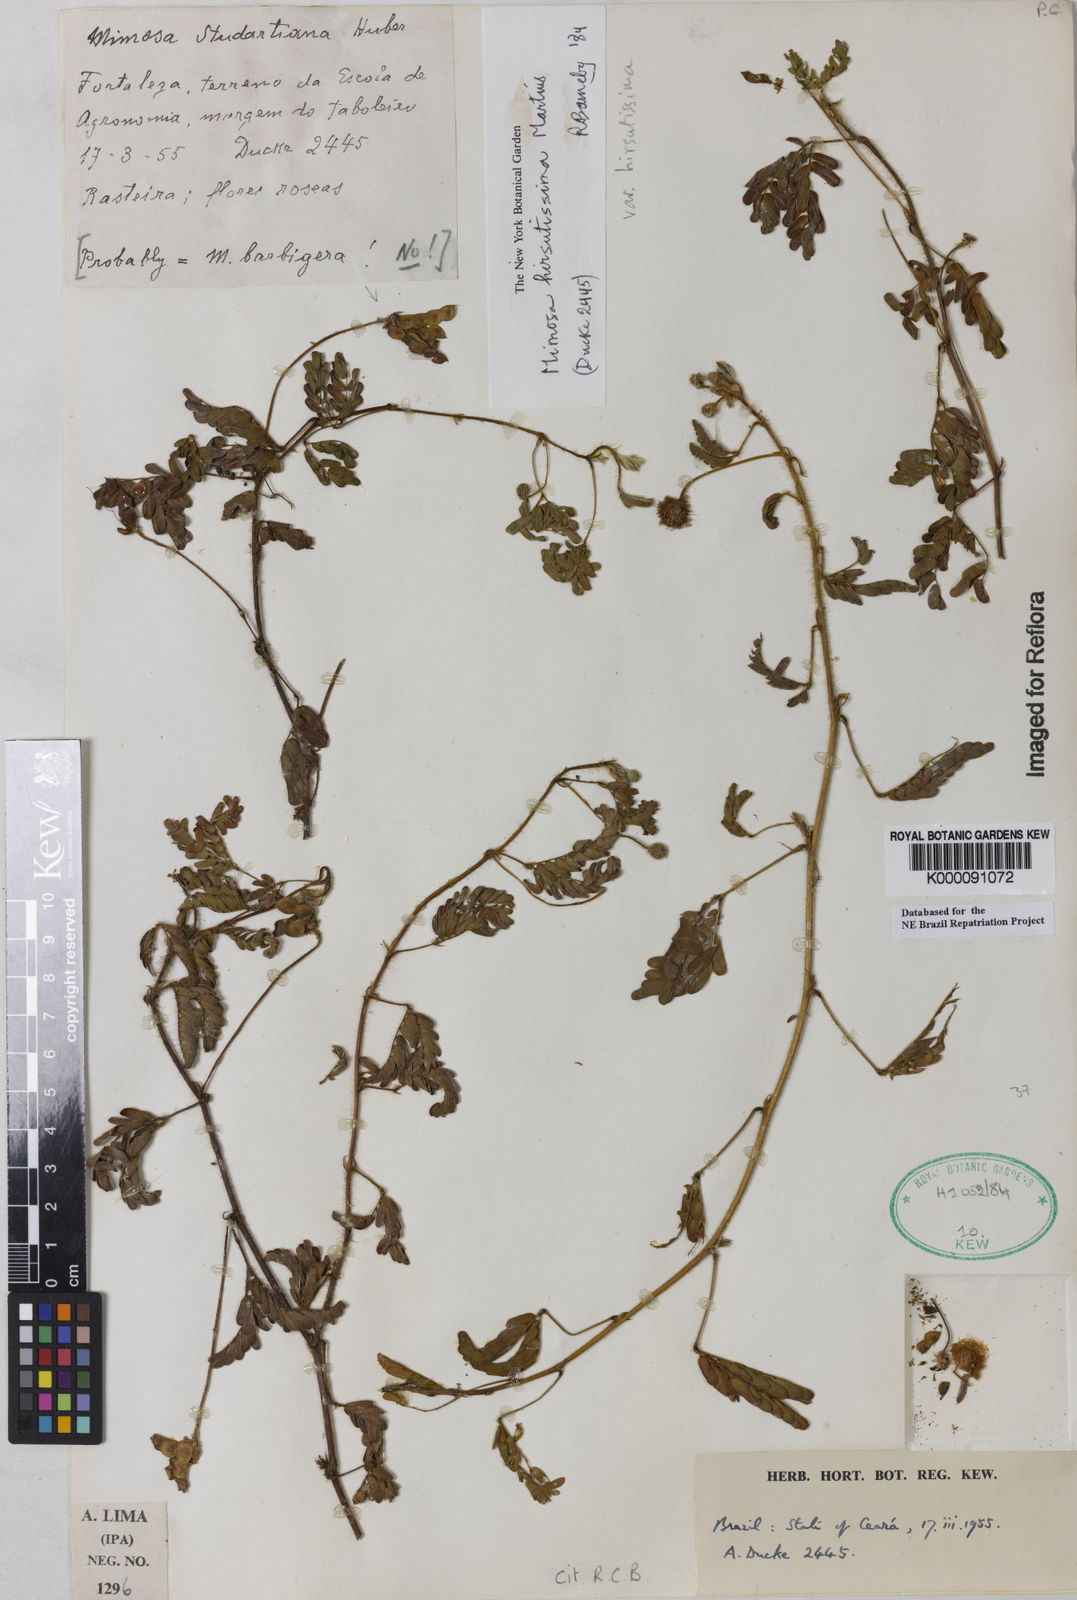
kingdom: Plantae
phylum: Tracheophyta
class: Magnoliopsida
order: Fabales
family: Fabaceae
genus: Mimosa
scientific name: Mimosa hirsutissima
